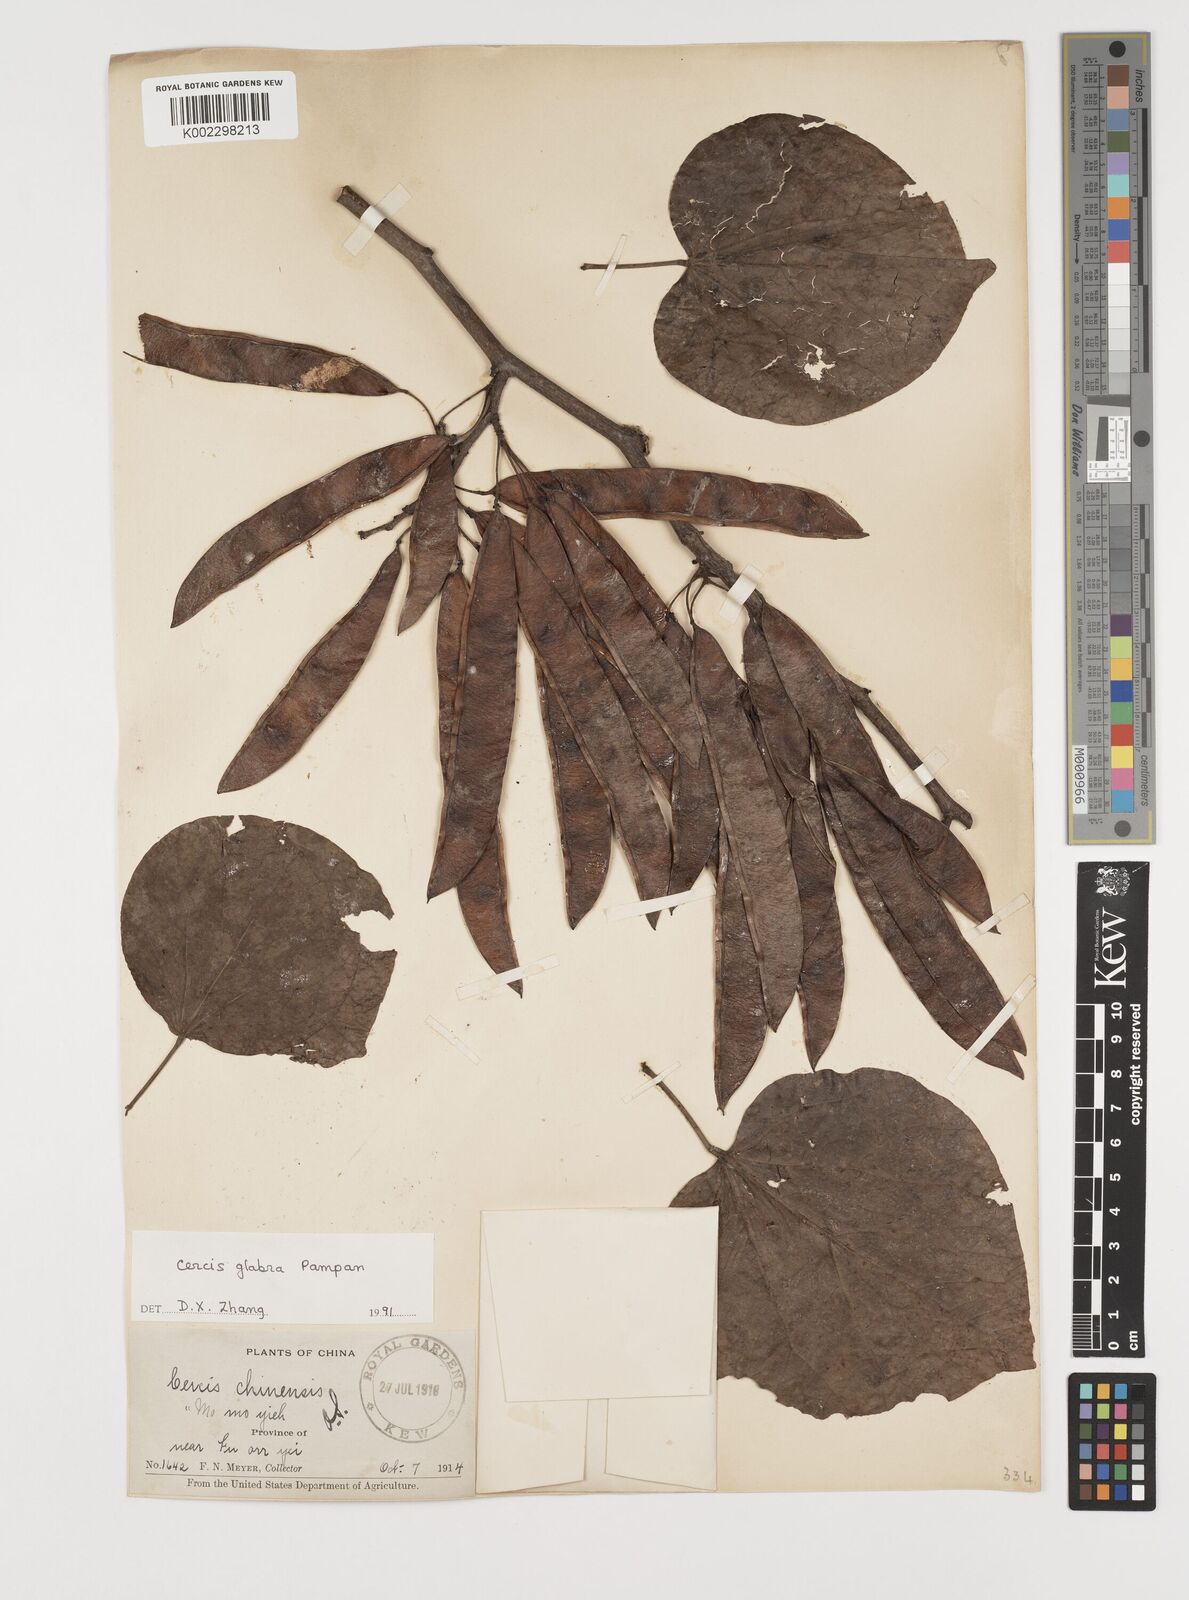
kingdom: Plantae
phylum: Tracheophyta
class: Magnoliopsida
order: Fabales
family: Fabaceae
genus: Cercis
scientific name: Cercis glabra
